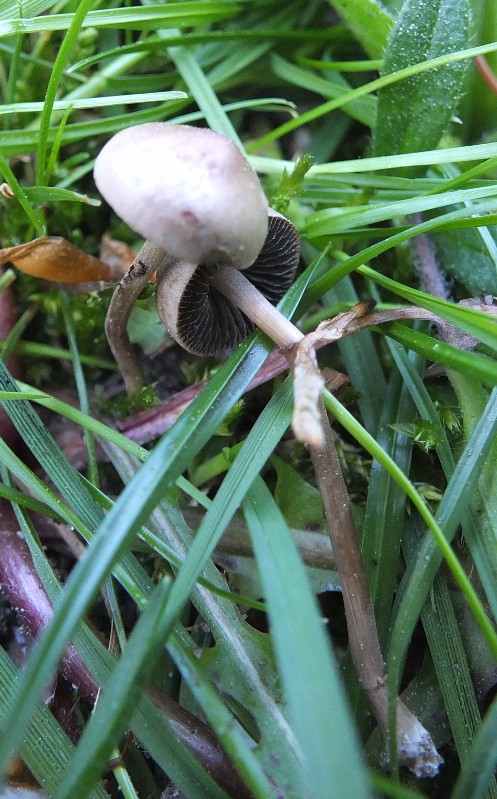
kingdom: Fungi
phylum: Basidiomycota
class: Agaricomycetes
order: Agaricales
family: Bolbitiaceae
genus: Panaeolus
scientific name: Panaeolus fimicola
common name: tidlig glanshat
